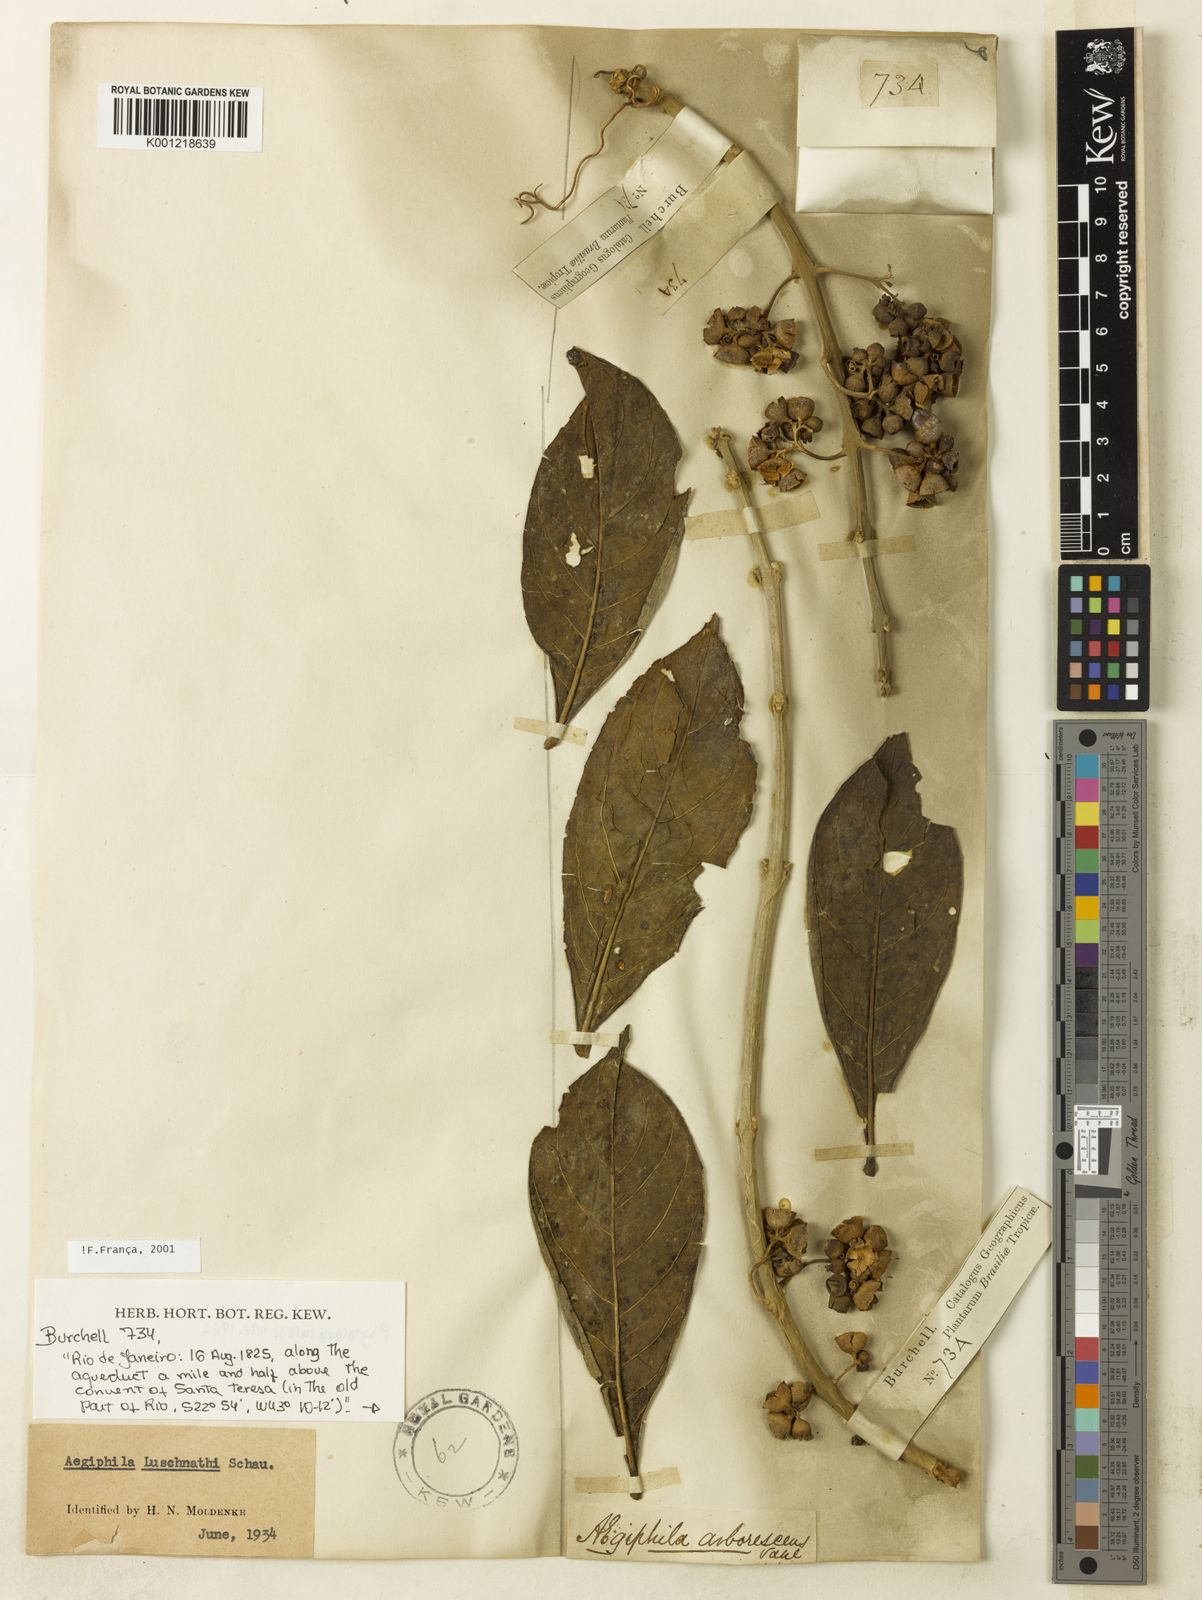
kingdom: Plantae
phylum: Tracheophyta
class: Magnoliopsida
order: Lamiales
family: Lamiaceae
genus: Aegiphila
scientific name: Aegiphila luschnathii
